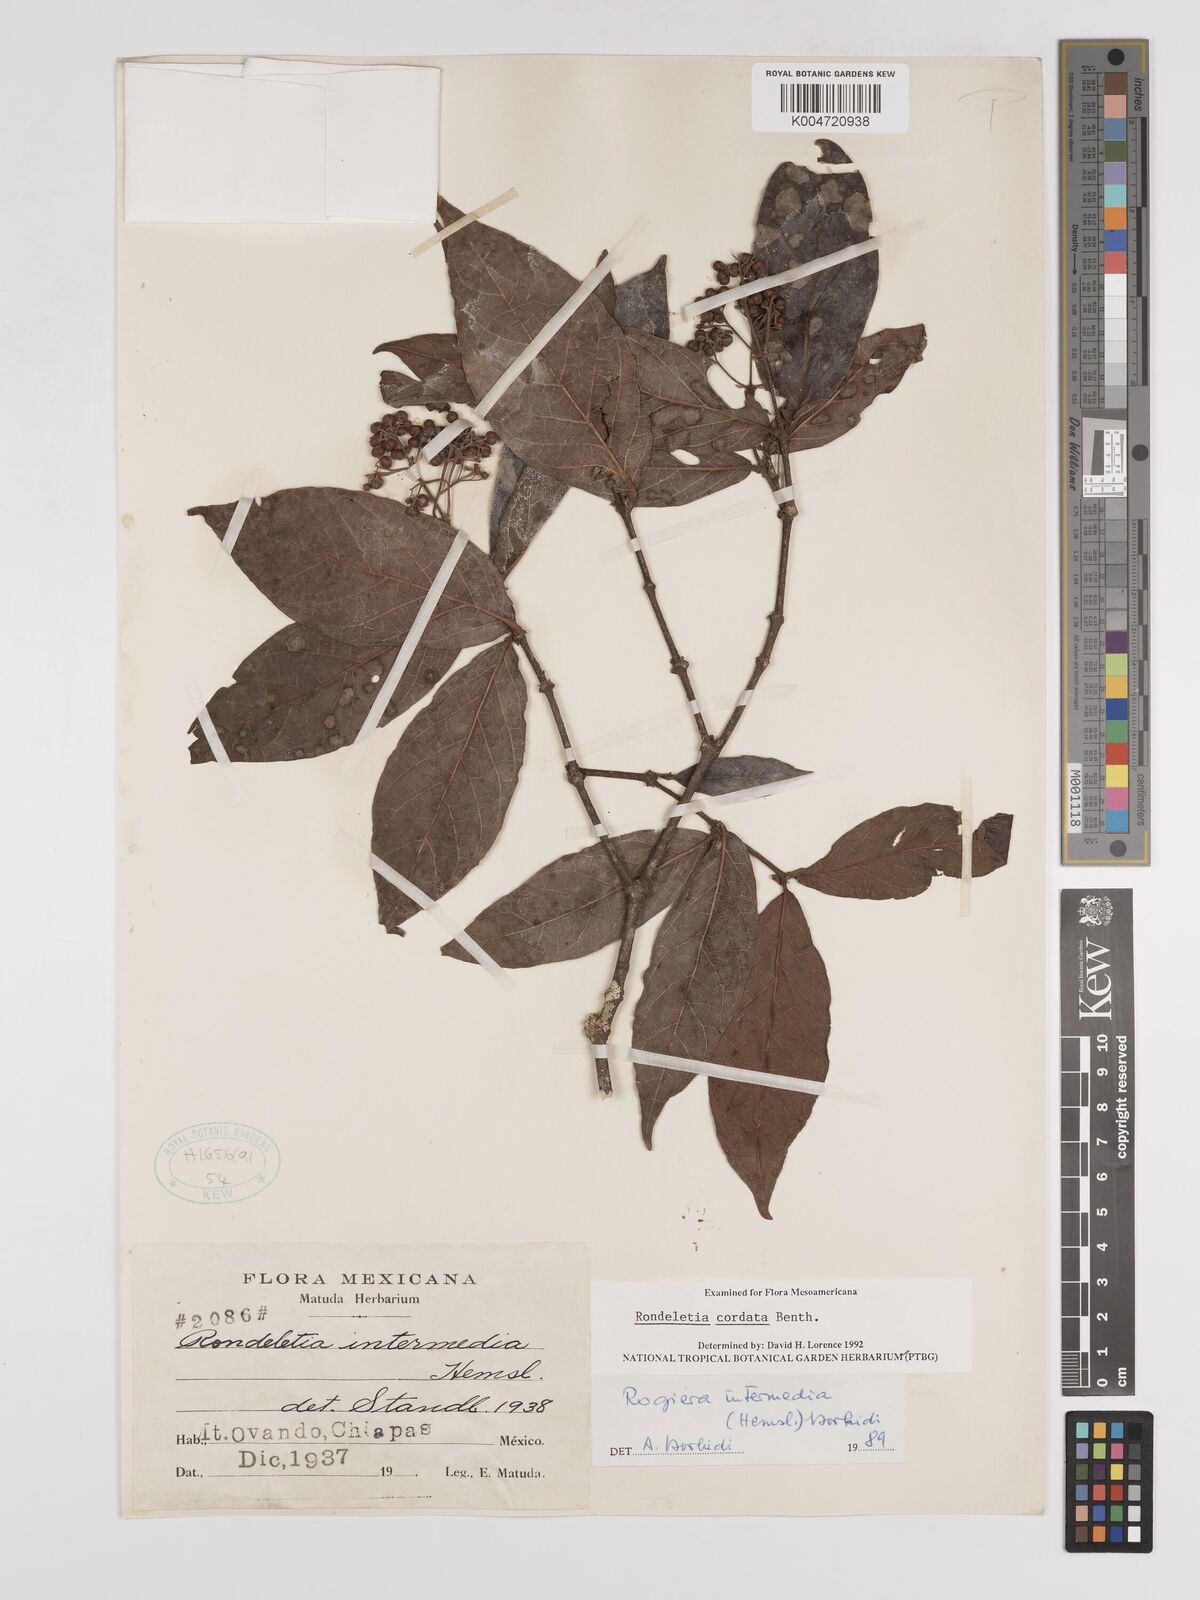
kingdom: Plantae
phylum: Tracheophyta
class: Magnoliopsida
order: Gentianales
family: Rubiaceae
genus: Rogiera
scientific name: Rogiera cordata
